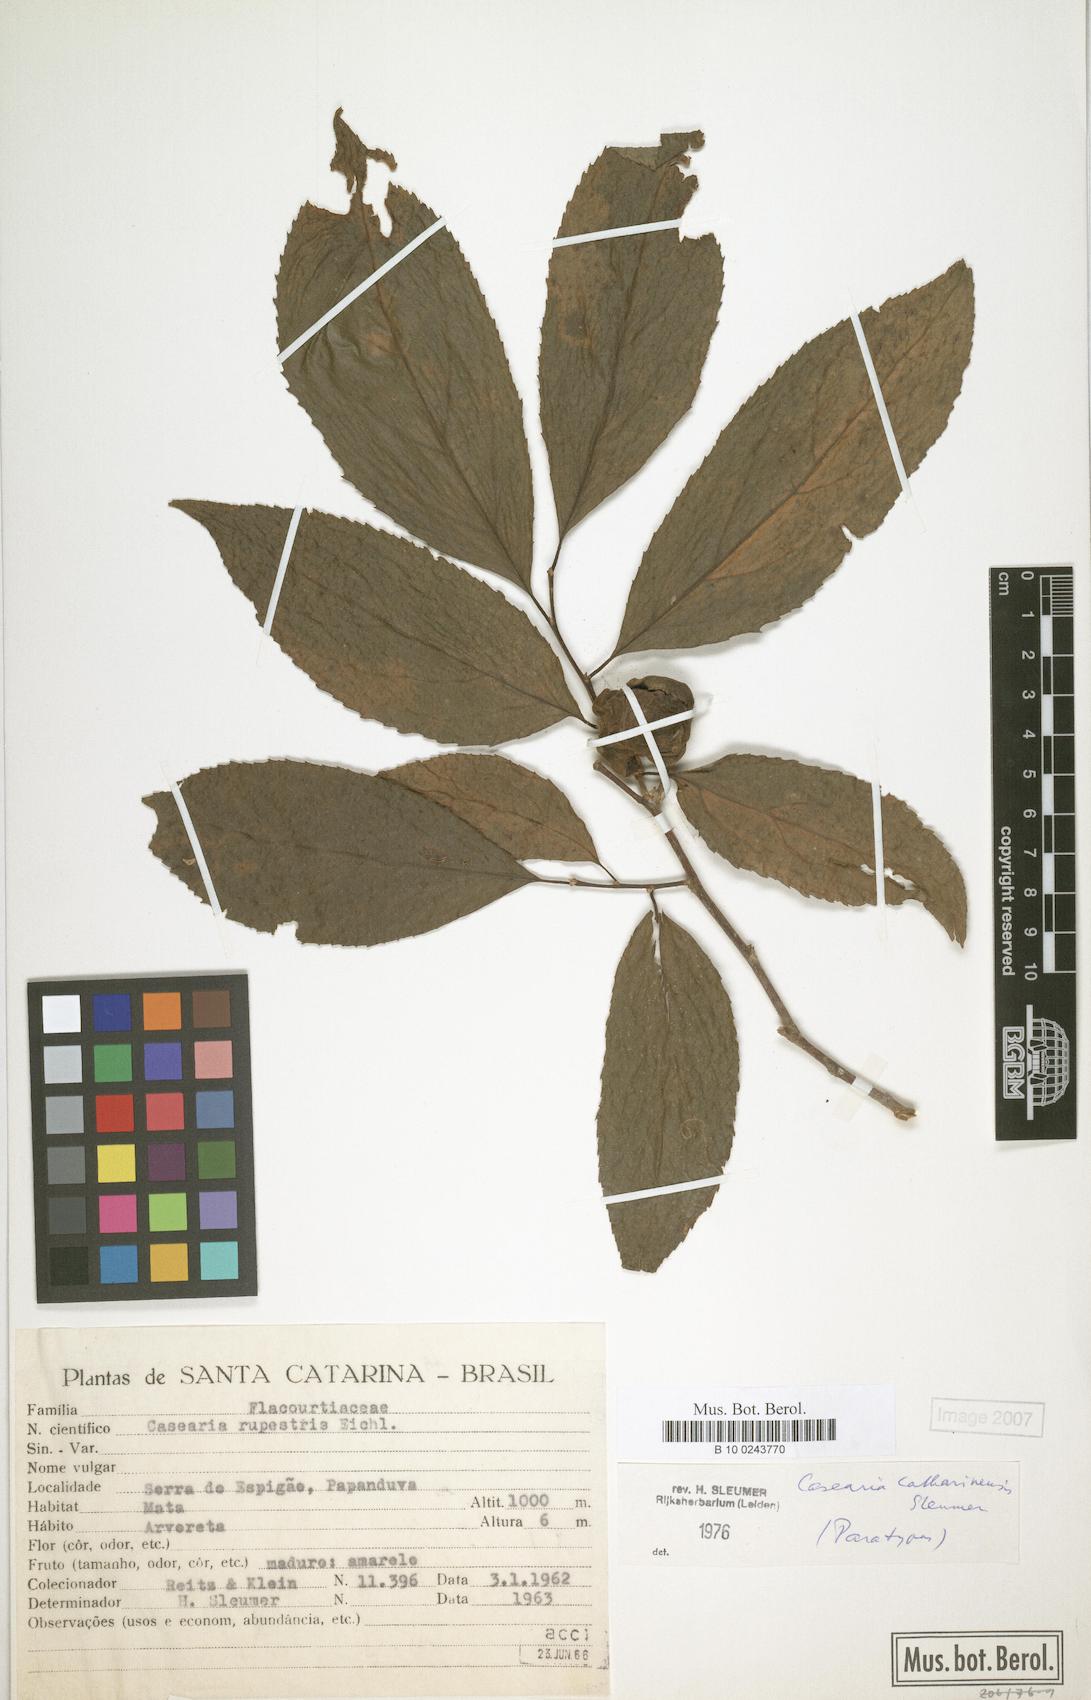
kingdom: Plantae
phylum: Tracheophyta
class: Magnoliopsida
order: Malpighiales
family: Salicaceae
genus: Casearia
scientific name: Casearia catharinensis
